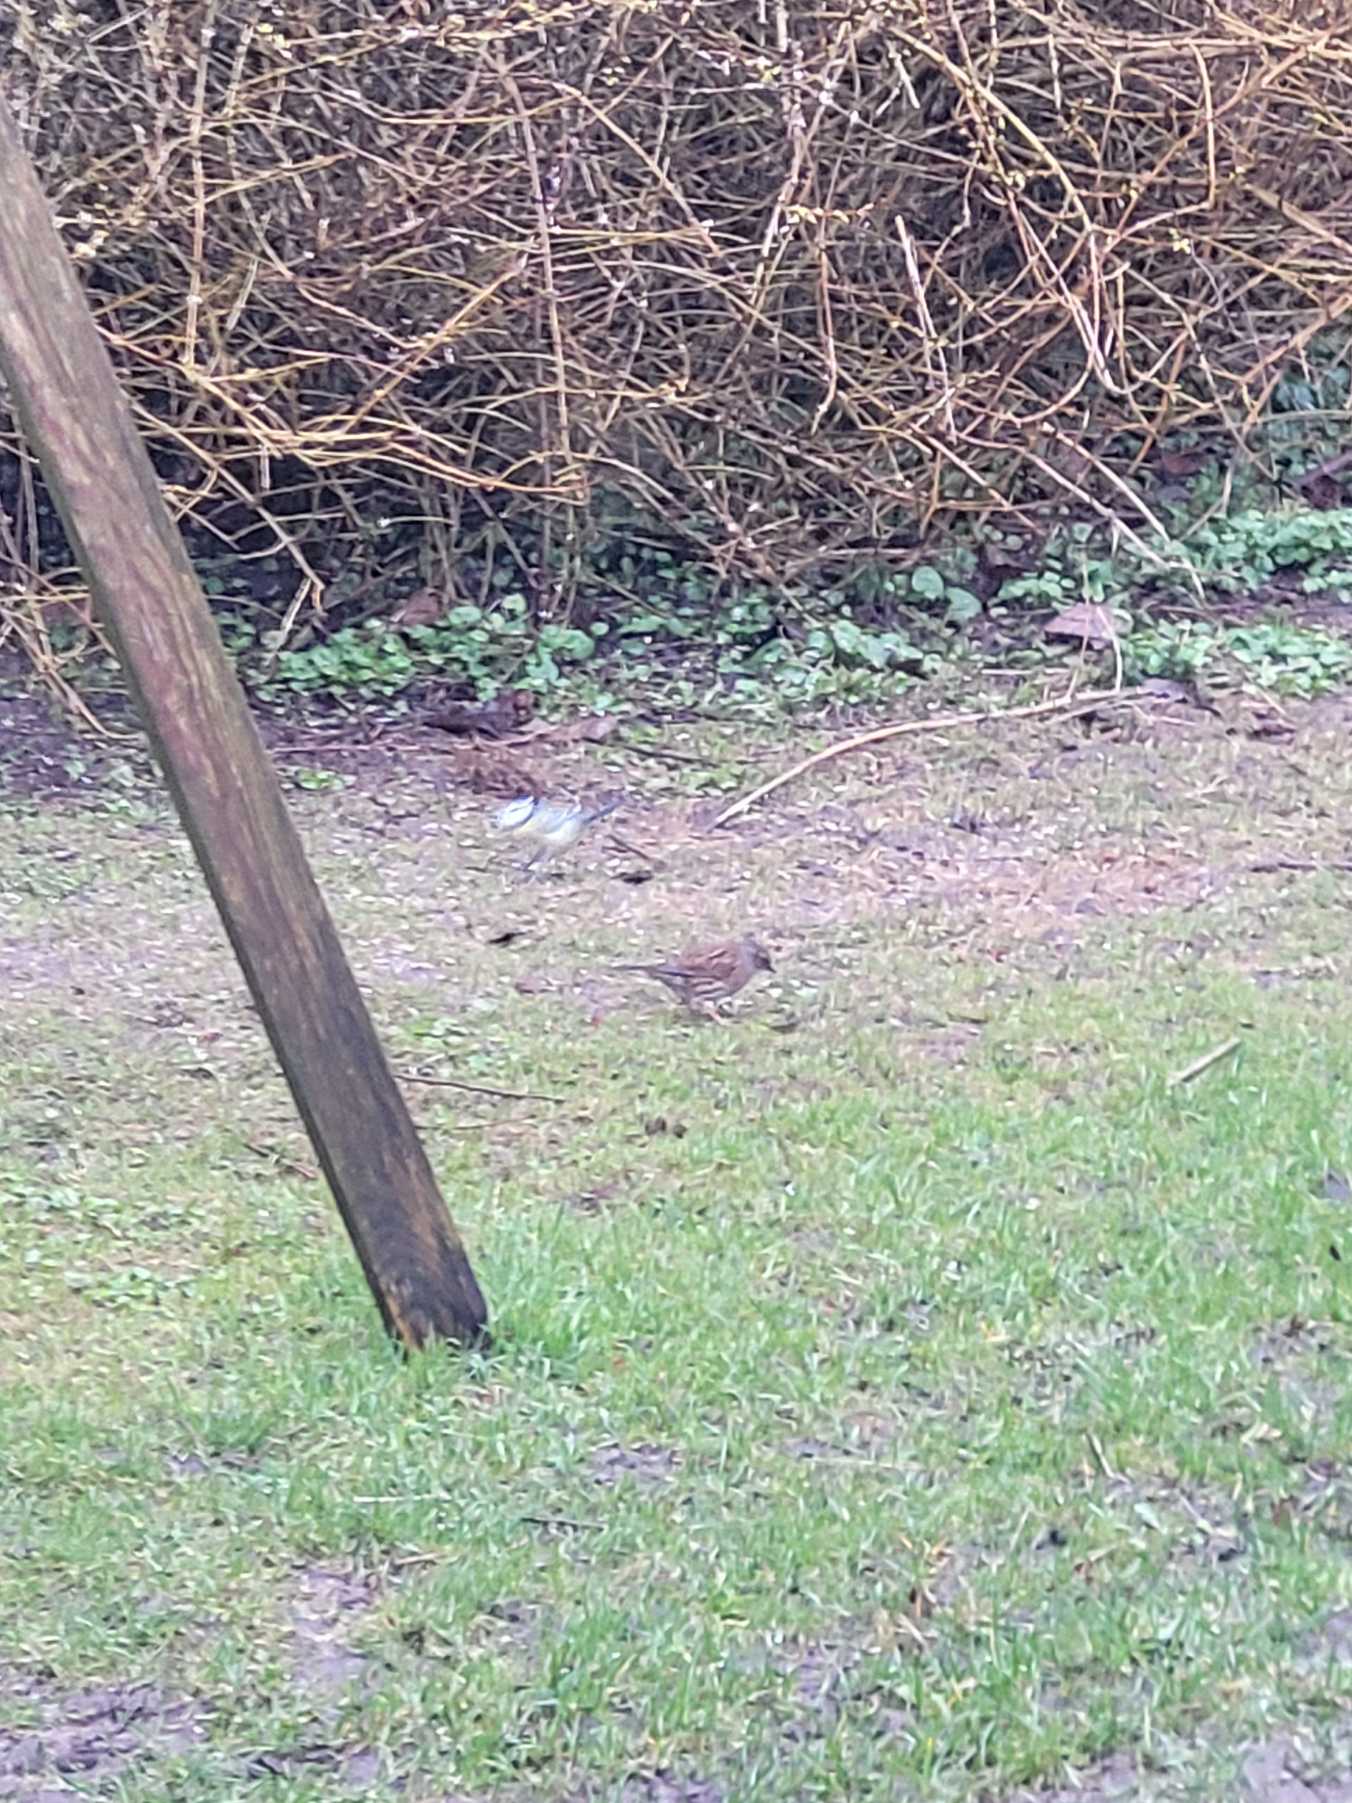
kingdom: Animalia
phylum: Chordata
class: Aves
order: Passeriformes
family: Prunellidae
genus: Prunella
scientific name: Prunella modularis
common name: Jernspurv
